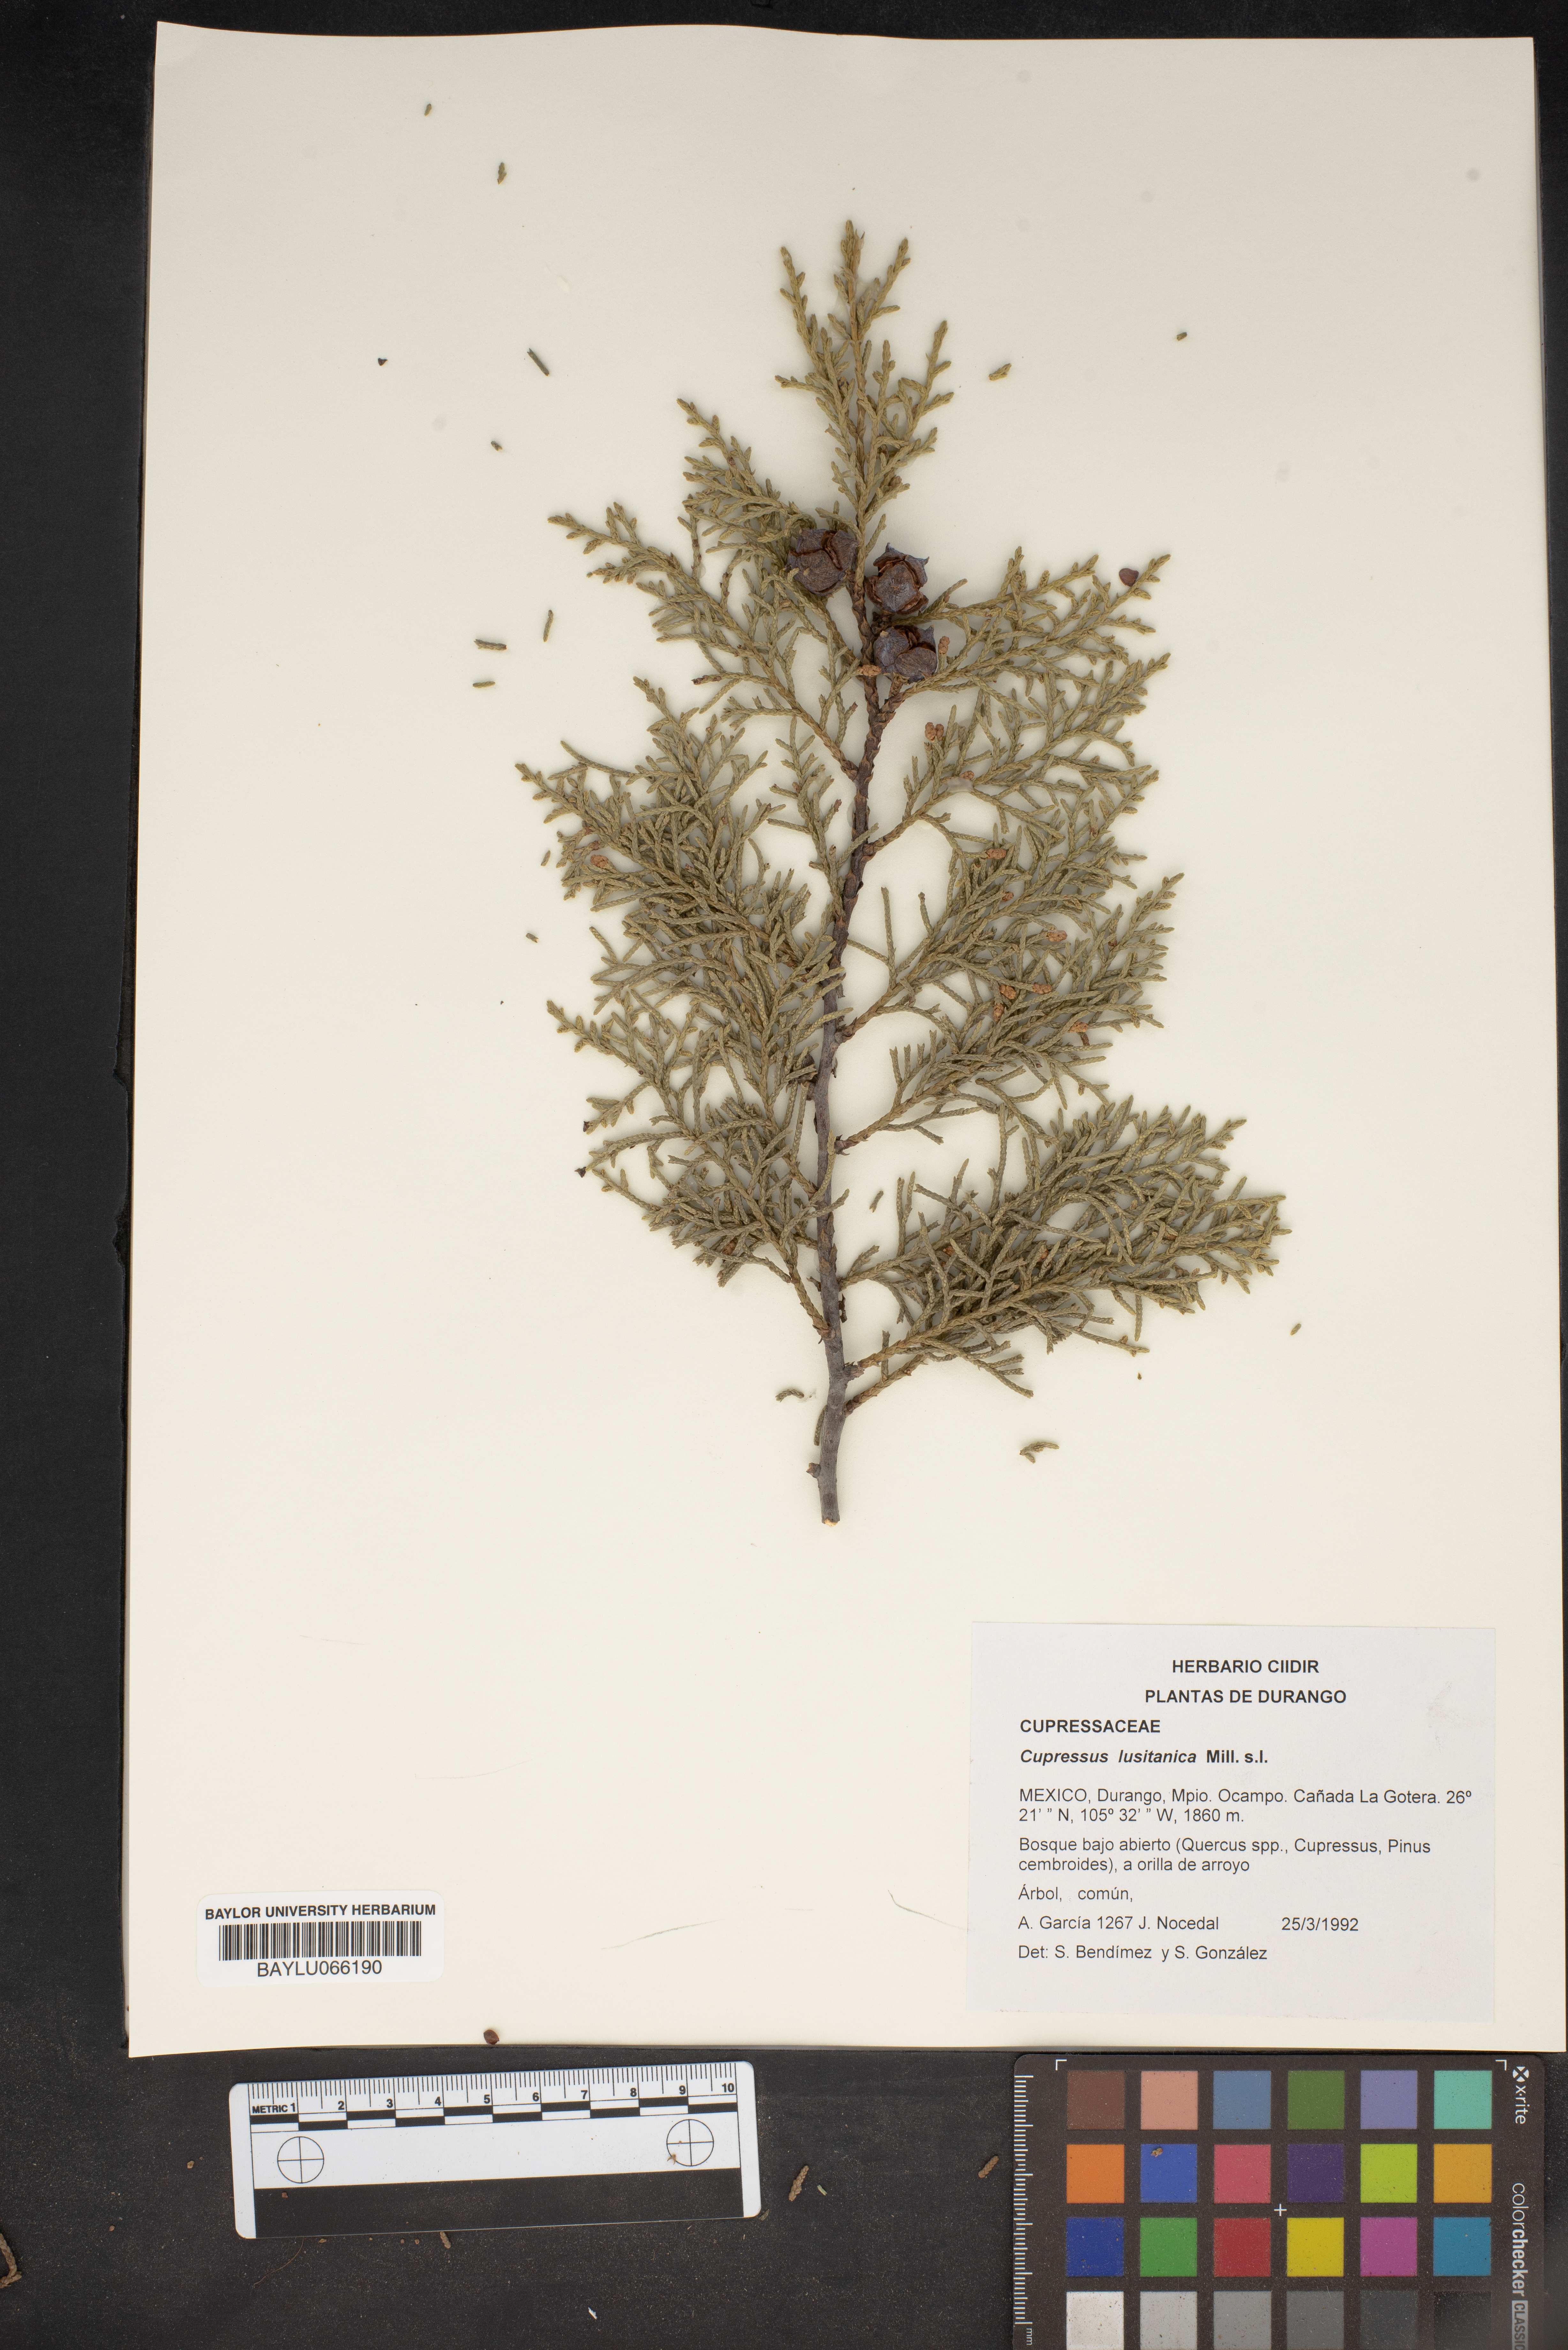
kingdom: Plantae
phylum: Tracheophyta
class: Pinopsida
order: Pinales
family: Cupressaceae
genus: Cupressus
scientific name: Cupressus lusitanica
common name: Mexican cypress
